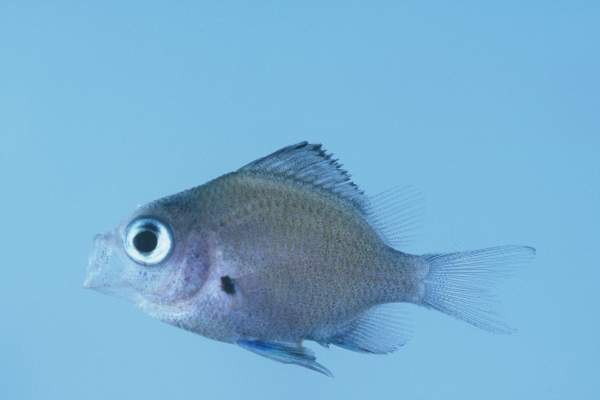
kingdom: Animalia
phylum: Chordata
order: Perciformes
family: Pomacentridae
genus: Chromis
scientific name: Chromis
